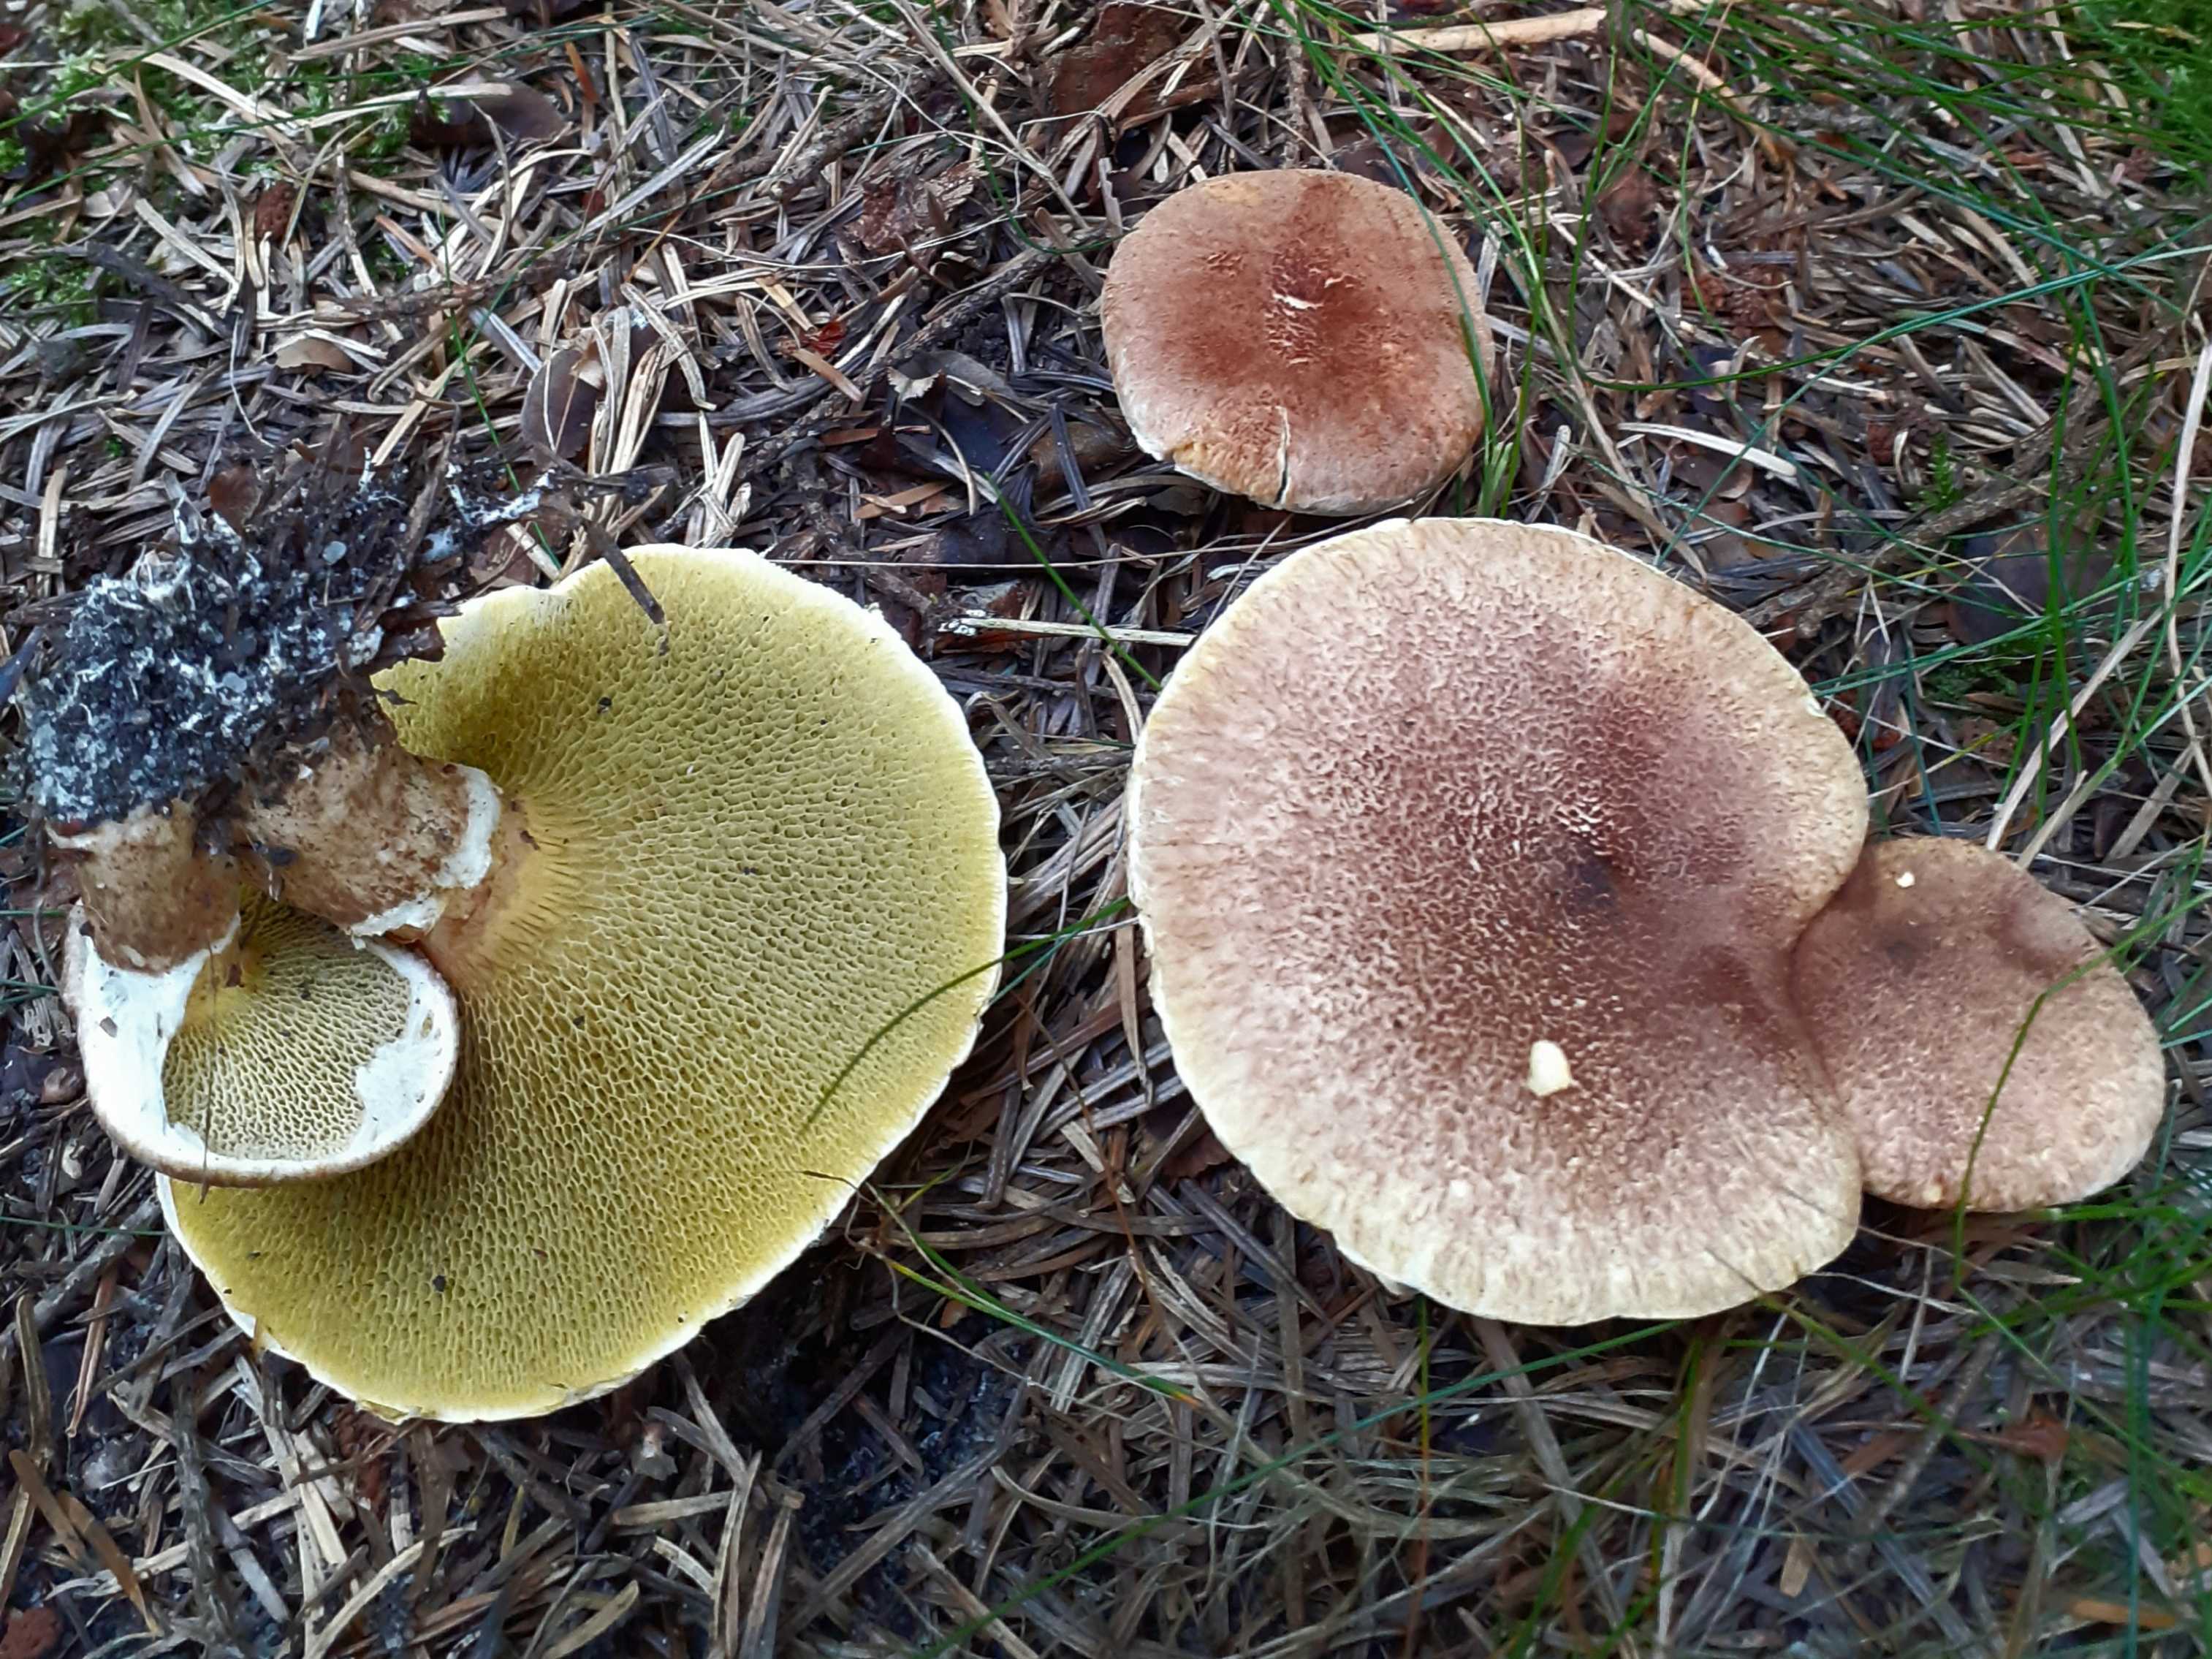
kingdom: Fungi
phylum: Basidiomycota
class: Agaricomycetes
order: Boletales
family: Suillaceae
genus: Suillus
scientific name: Suillus cavipes
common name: hulstokket slimrørhat
